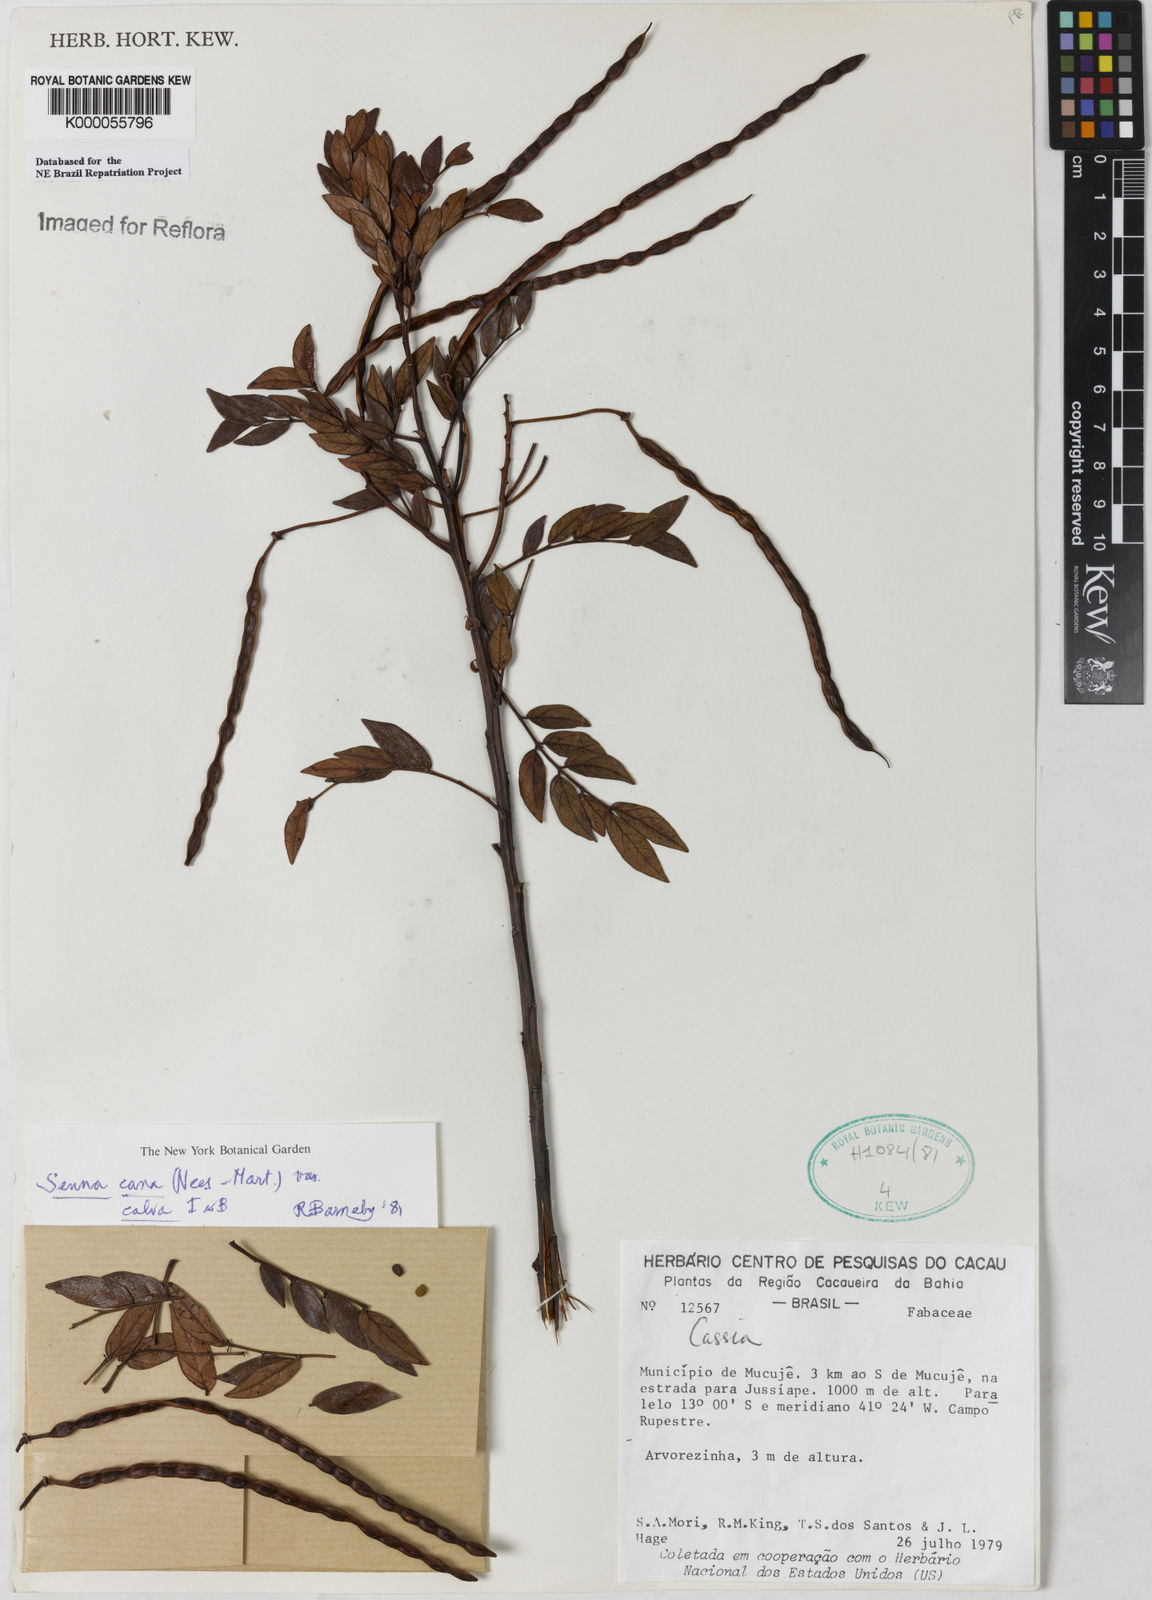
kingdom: Plantae
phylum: Tracheophyta
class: Magnoliopsida
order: Fabales
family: Fabaceae
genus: Senna
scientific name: Senna cana
